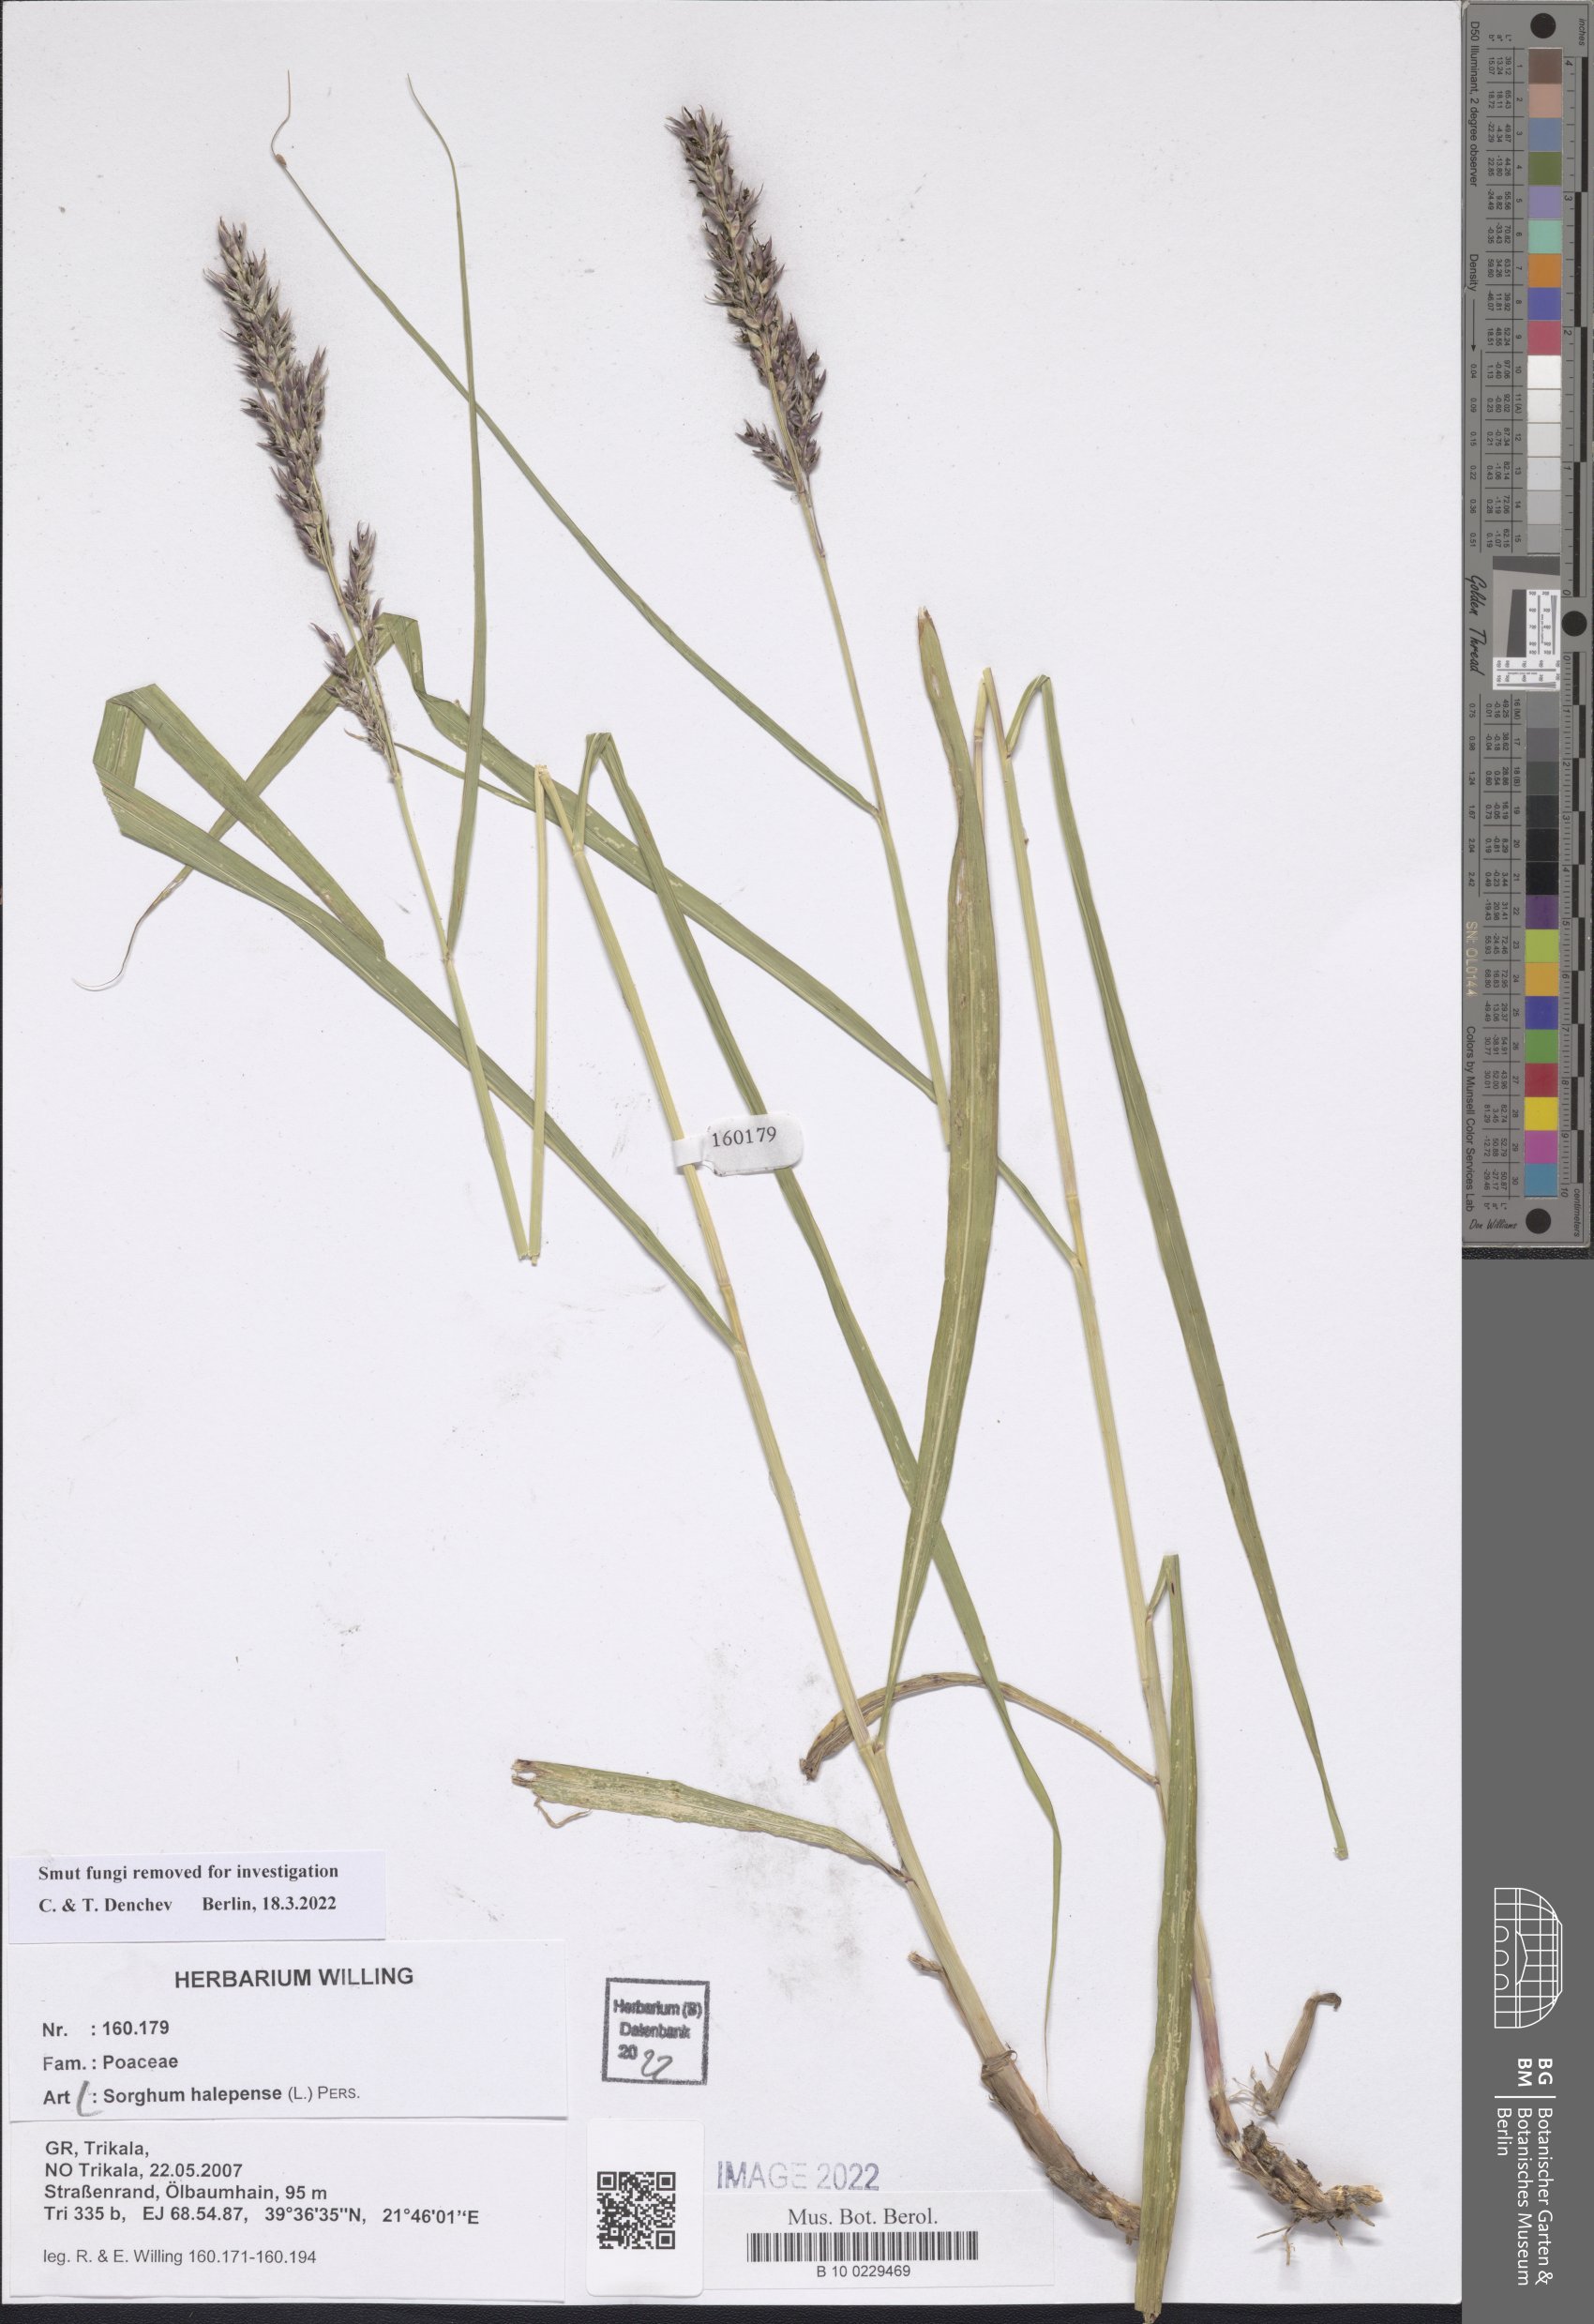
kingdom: Plantae
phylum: Tracheophyta
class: Liliopsida
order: Poales
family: Poaceae
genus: Sorghum
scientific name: Sorghum halepense
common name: Johnson-grass
